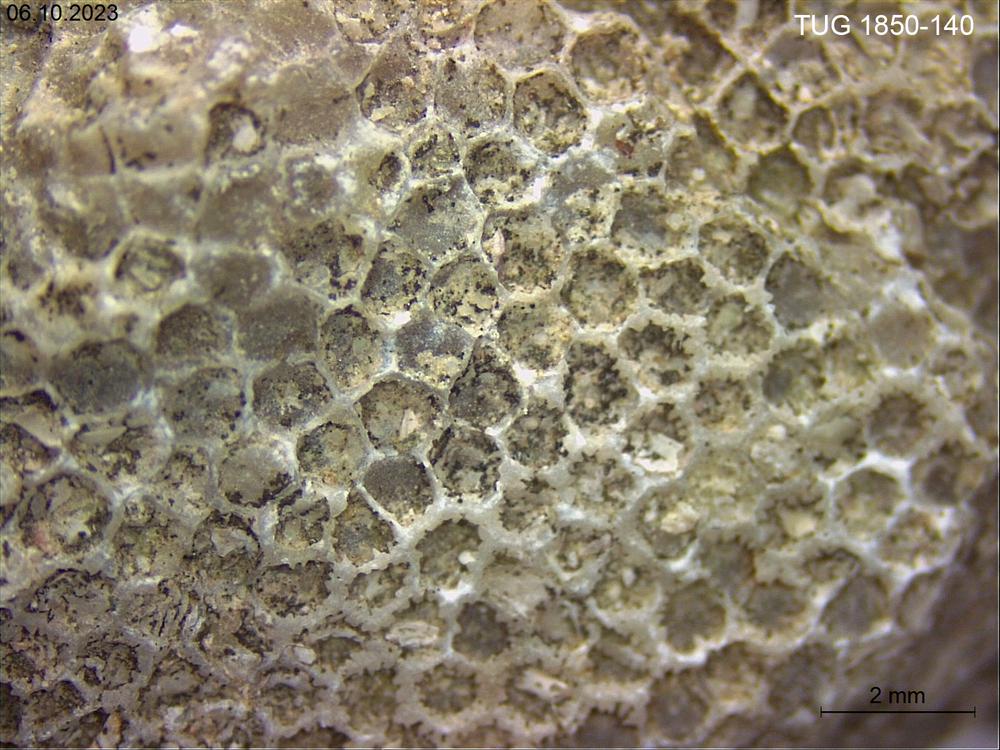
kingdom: Animalia
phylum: Cnidaria
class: Anthozoa
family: Favositidae
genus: Favosites
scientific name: Favosites
